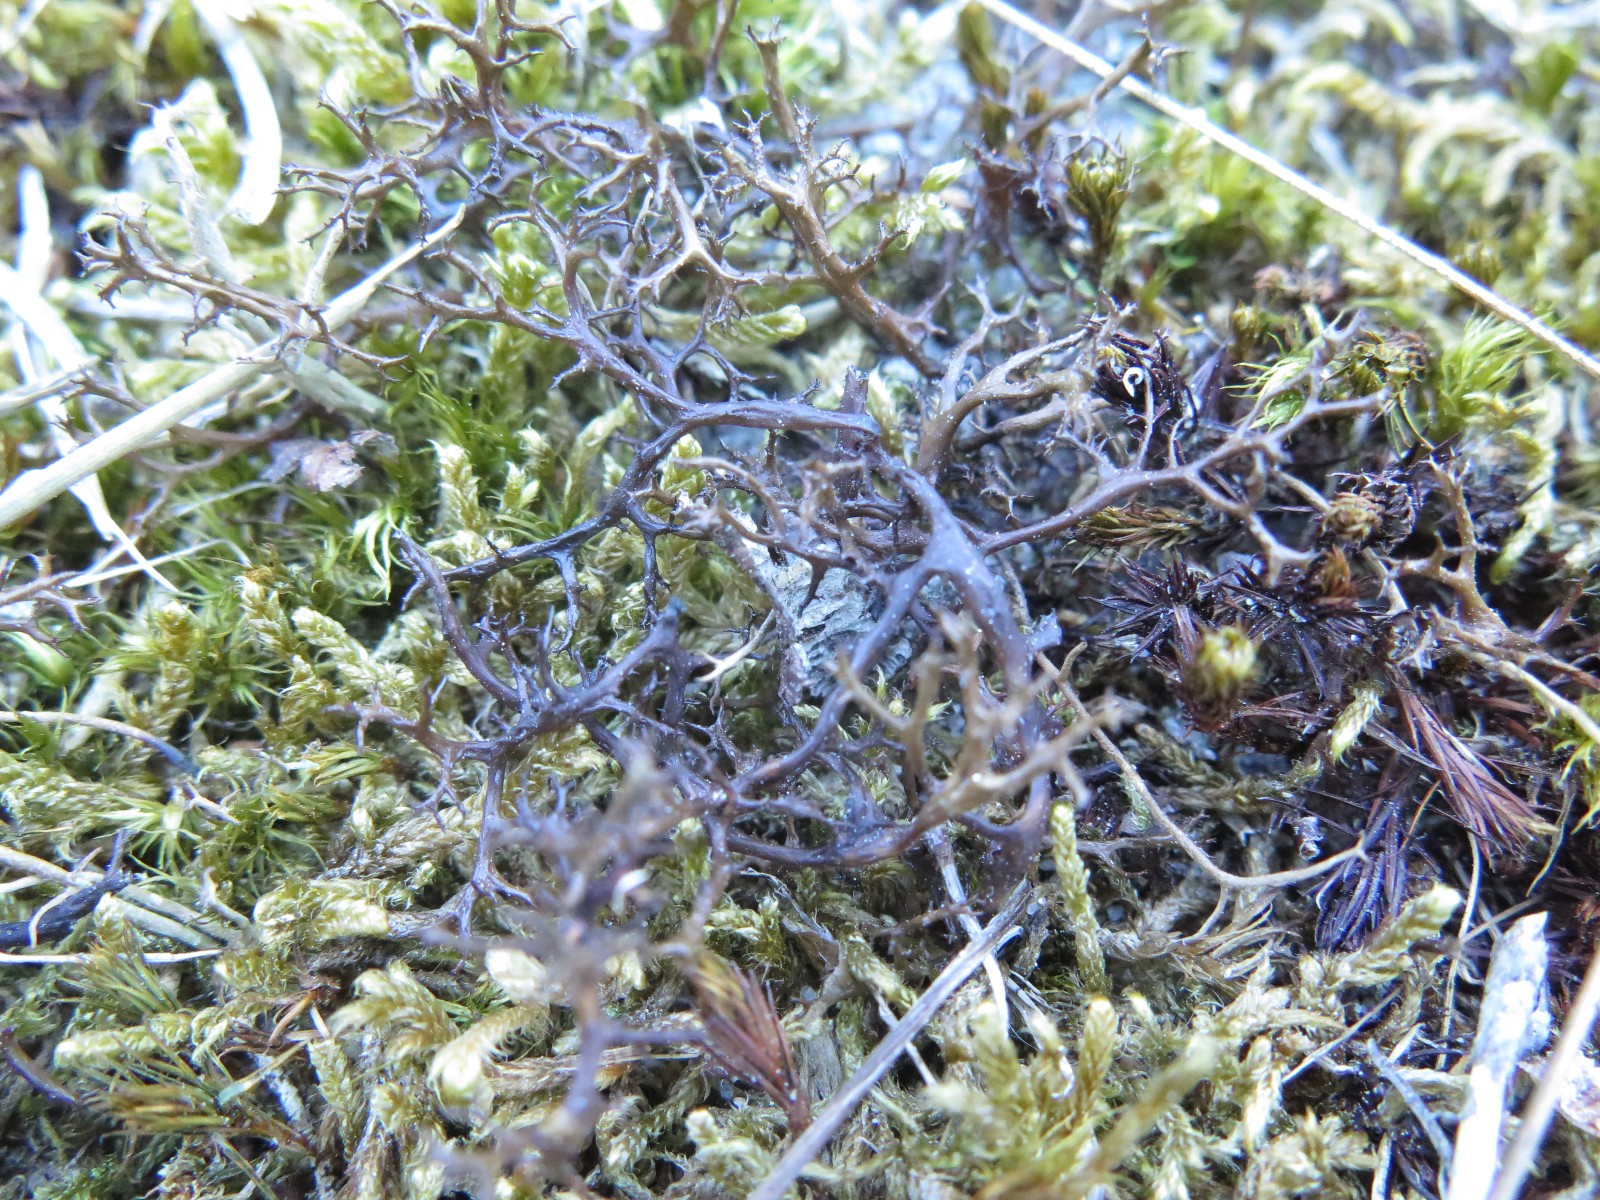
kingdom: Fungi
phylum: Ascomycota
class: Lecanoromycetes
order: Lecanorales
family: Parmeliaceae
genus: Cetraria
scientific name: Cetraria aculeata
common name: grubet tjørnelav
